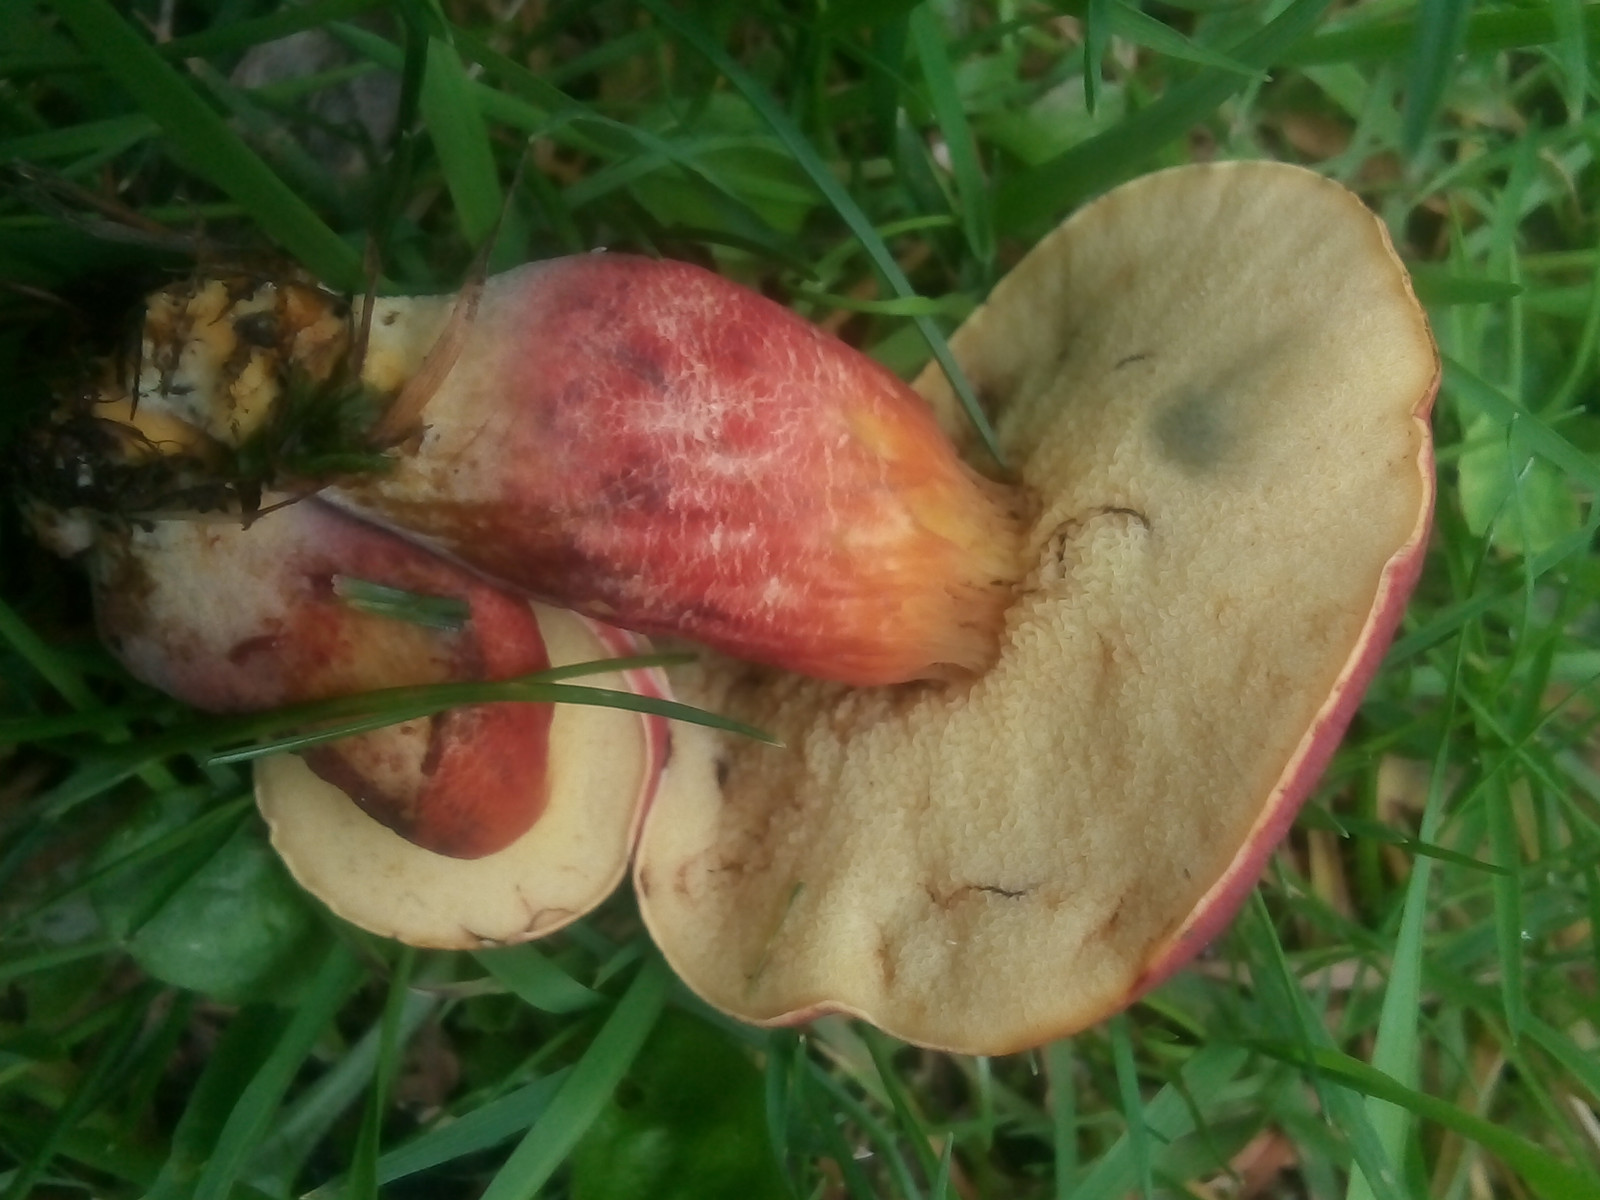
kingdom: Fungi
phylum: Basidiomycota
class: Agaricomycetes
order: Boletales
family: Boletaceae
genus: Hortiboletus
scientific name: Hortiboletus rubellus
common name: blodrød rørhat
